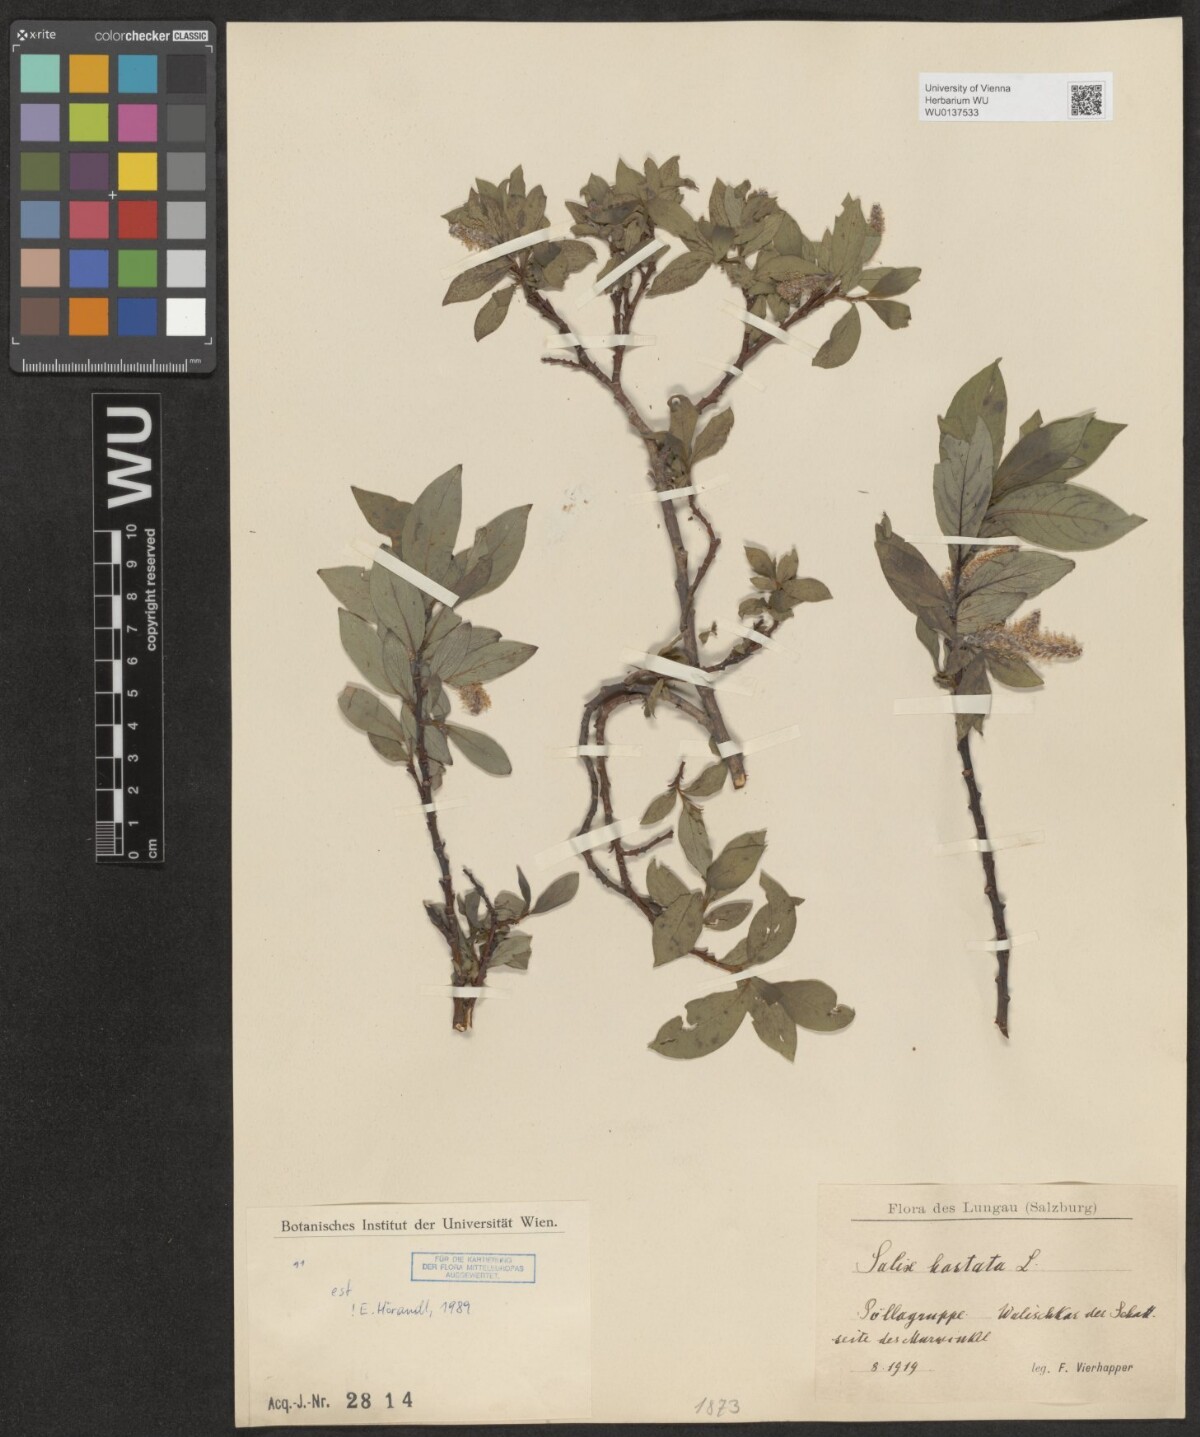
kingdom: Plantae
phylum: Tracheophyta
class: Magnoliopsida
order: Malpighiales
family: Salicaceae
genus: Salix
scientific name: Salix hastata
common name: Halberd willow
